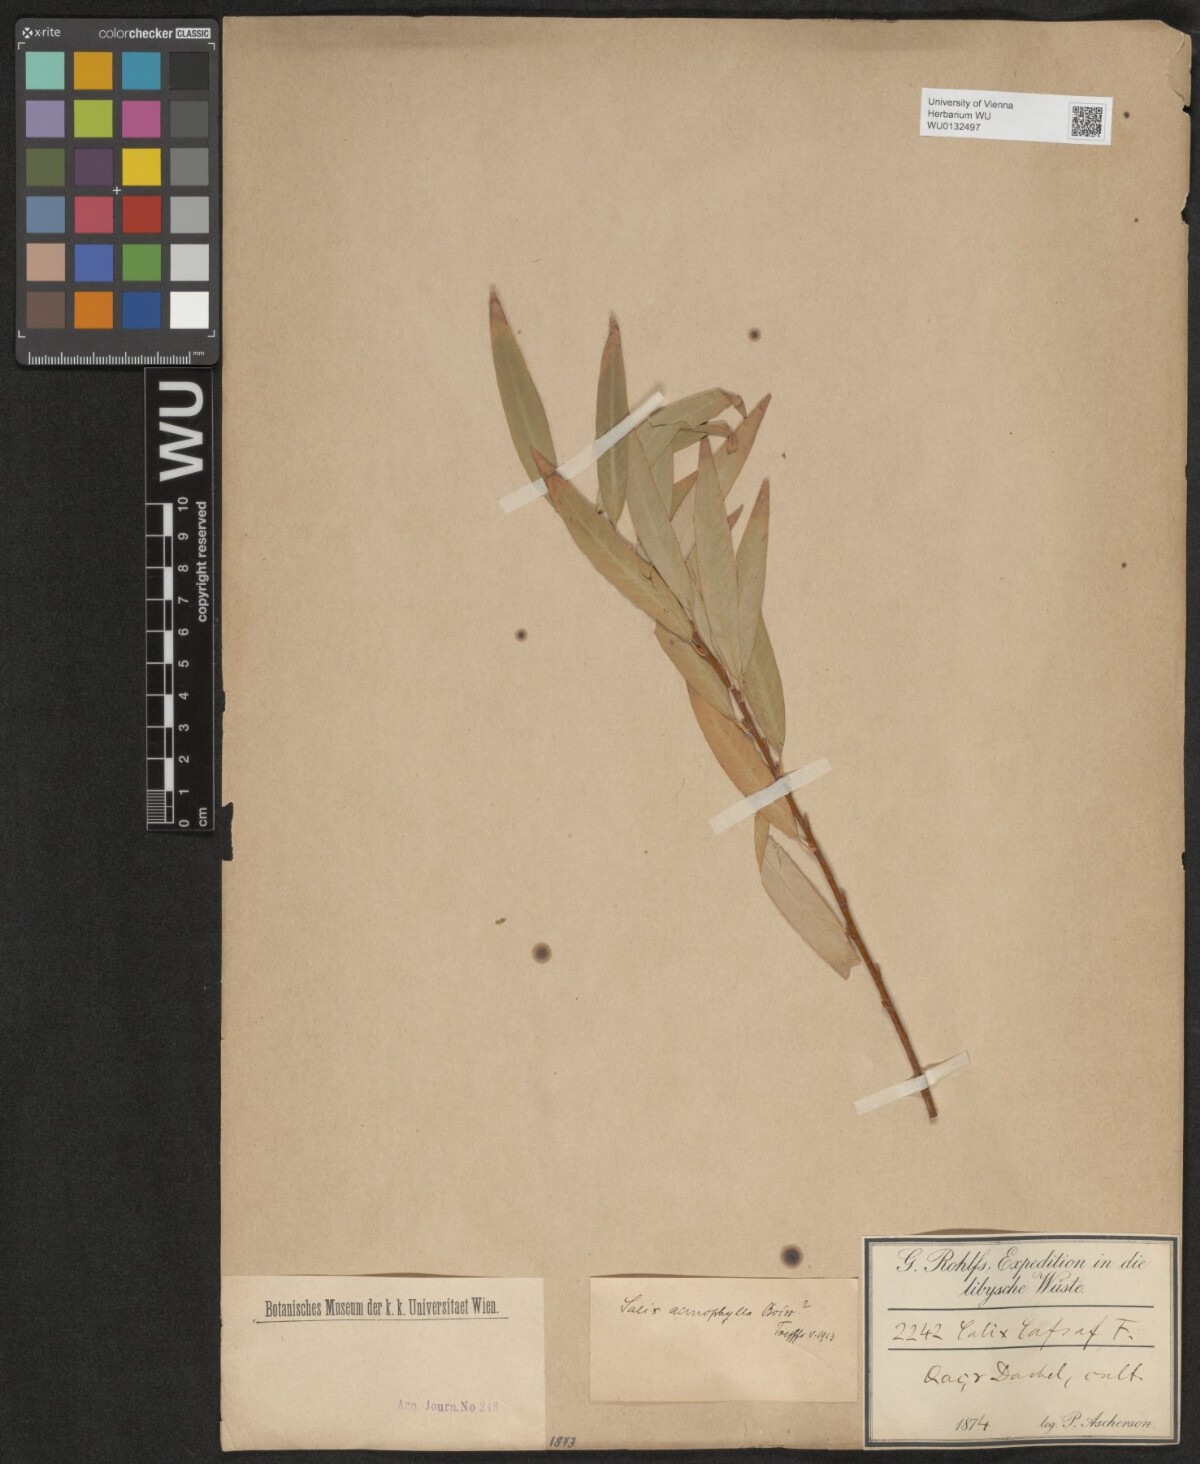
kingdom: Plantae
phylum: Tracheophyta
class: Magnoliopsida
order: Malpighiales
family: Salicaceae
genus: Salix
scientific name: Salix acmophylla
